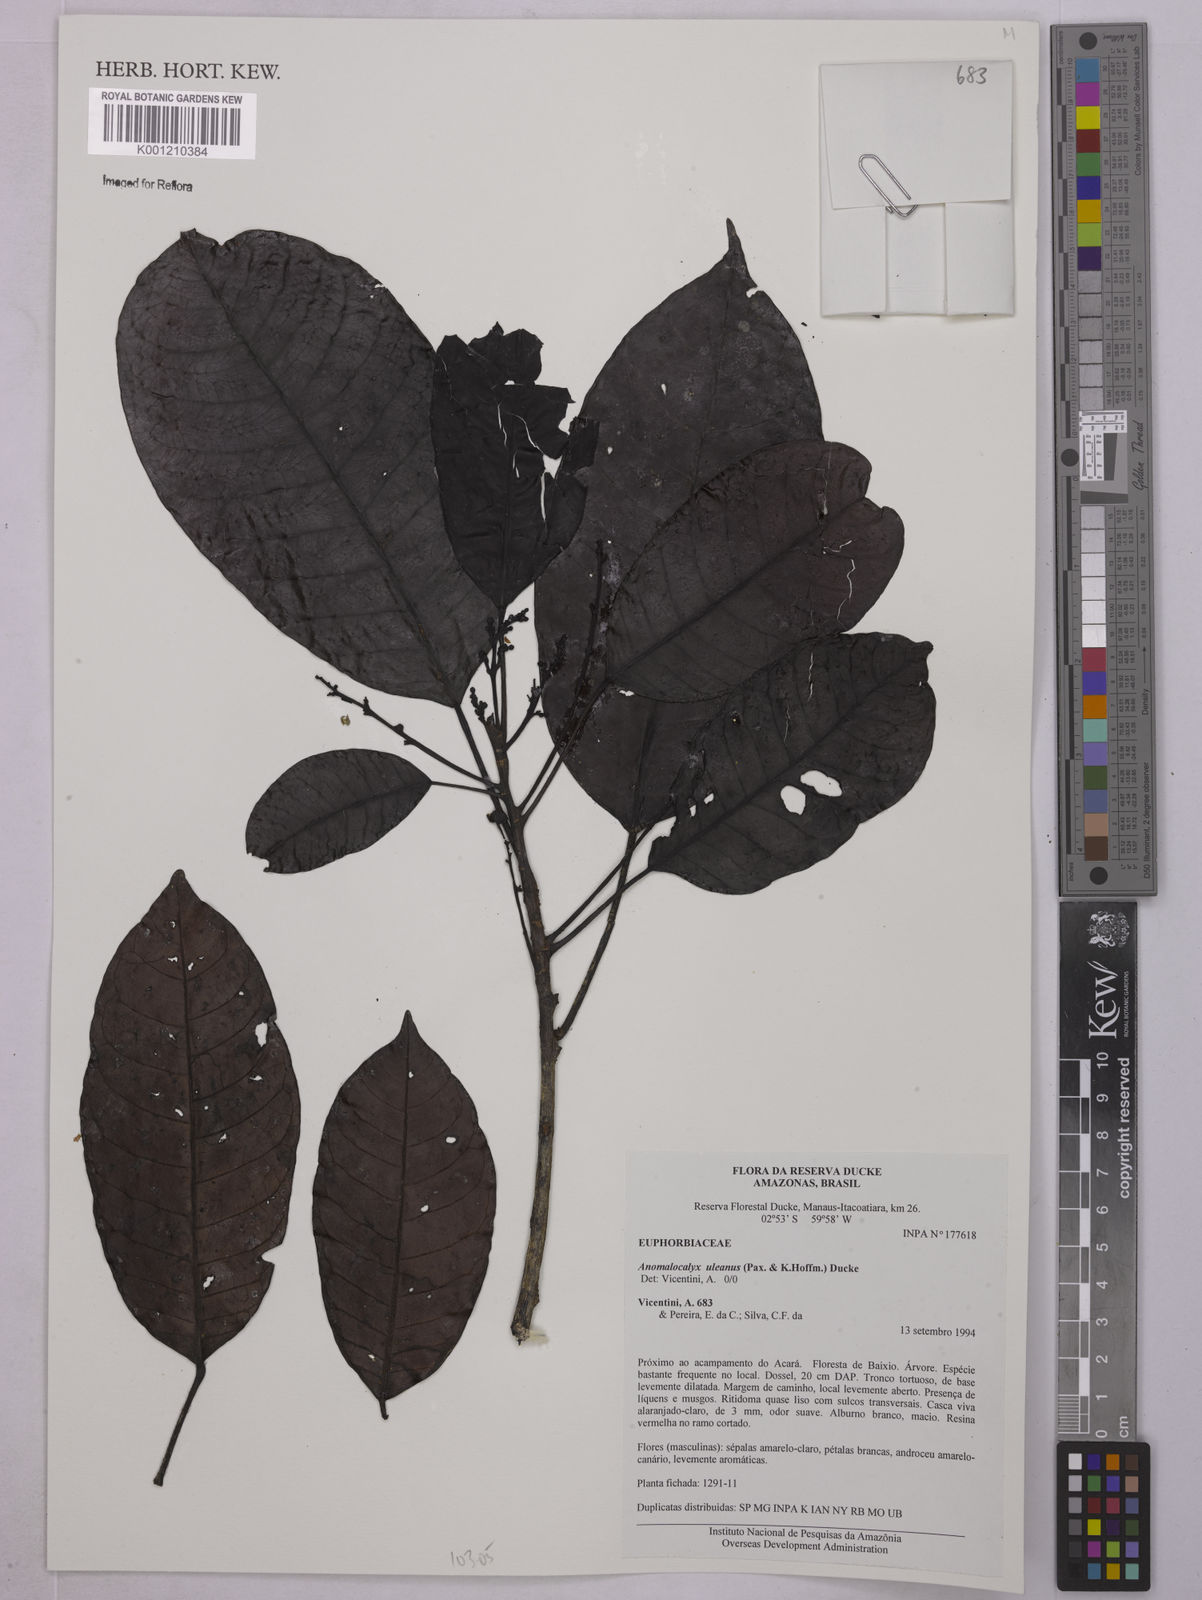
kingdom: Plantae
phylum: Tracheophyta
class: Magnoliopsida
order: Malpighiales
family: Euphorbiaceae
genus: Dodecastigma
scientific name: Dodecastigma uleanum
